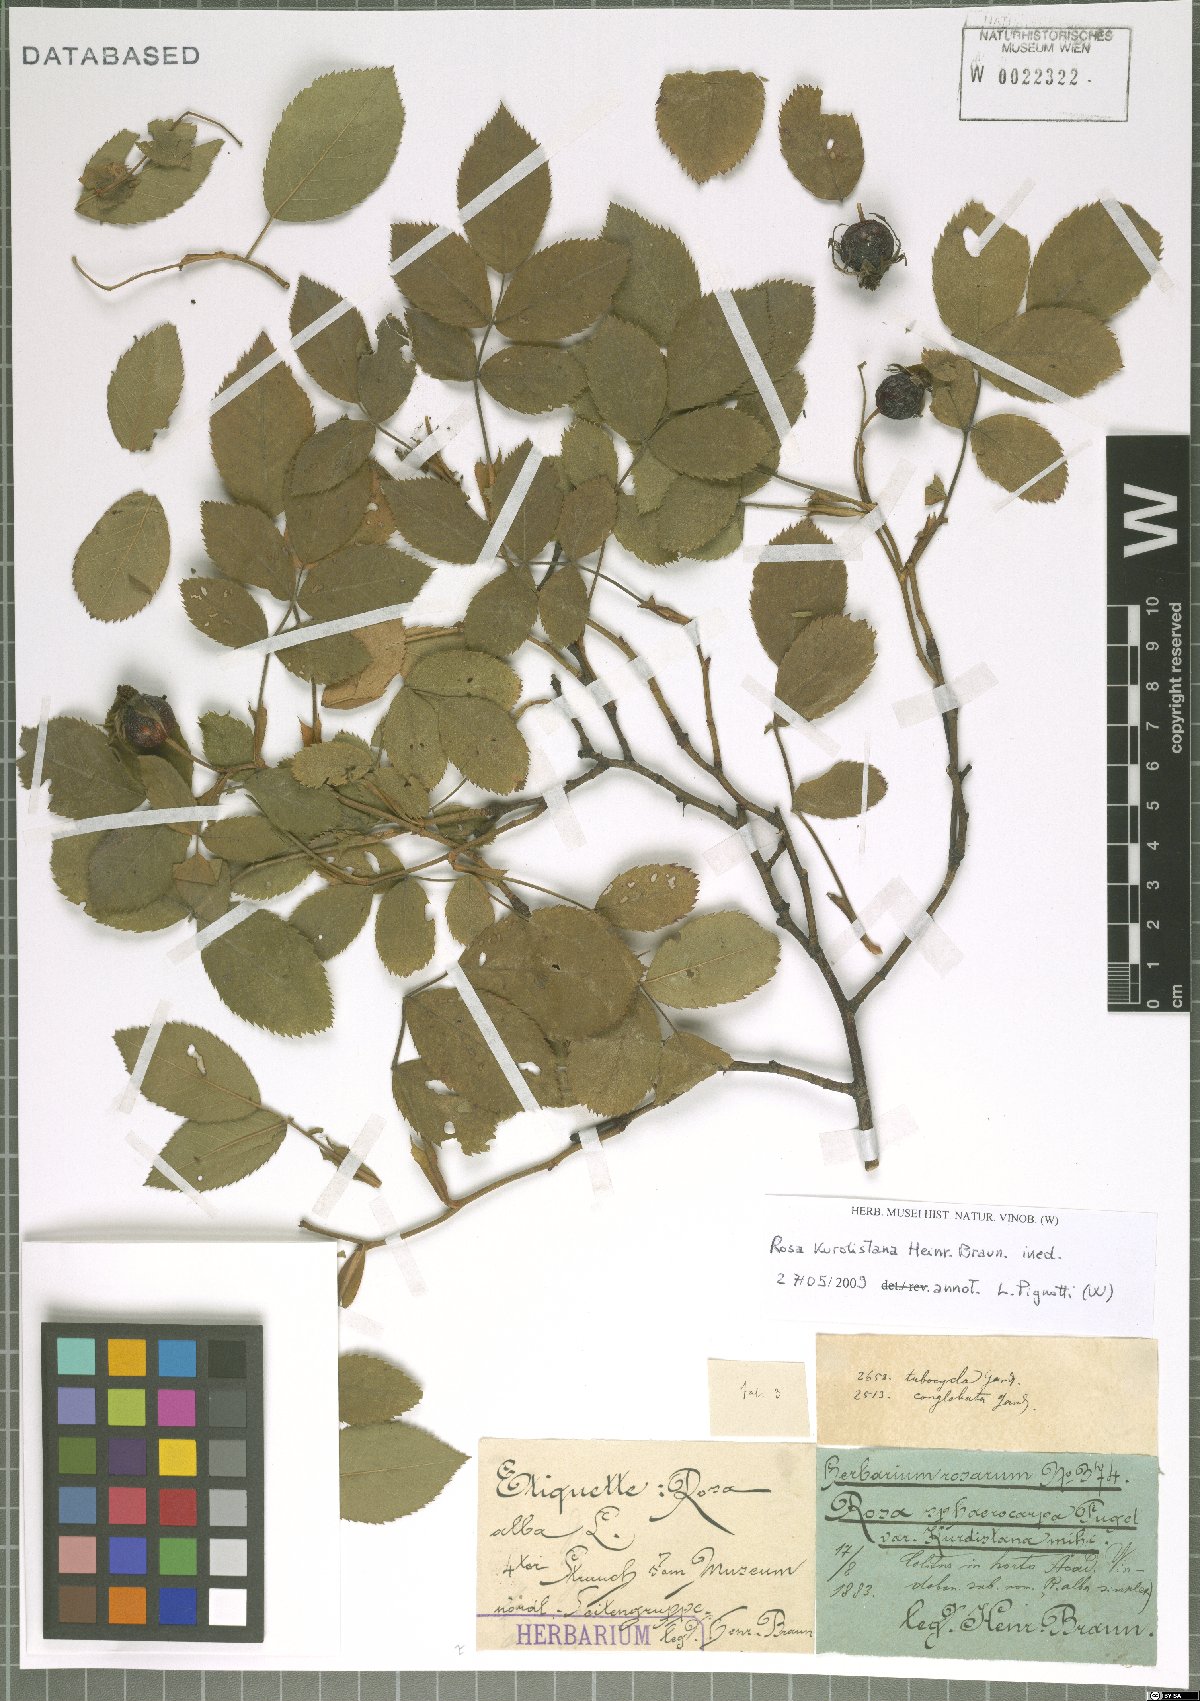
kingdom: Plantae
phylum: Tracheophyta
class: Magnoliopsida
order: Rosales
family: Rosaceae
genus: Rosa
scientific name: Rosa
